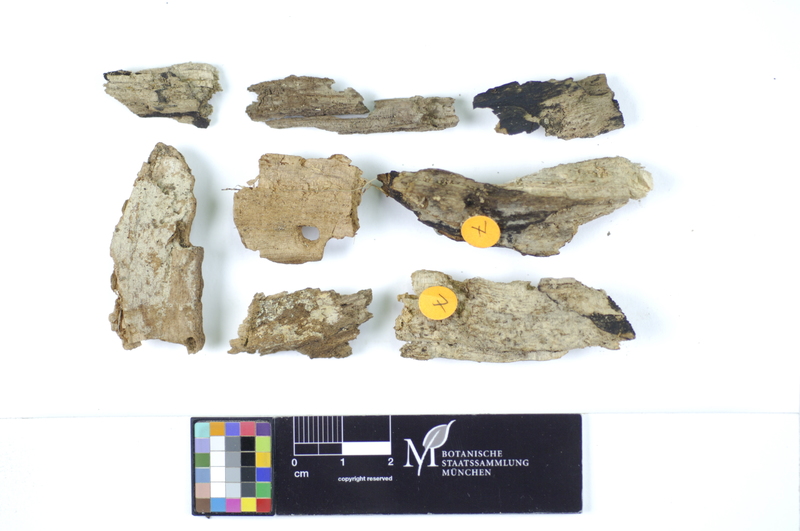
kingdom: Fungi
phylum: Basidiomycota
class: Agaricomycetes
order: Hymenochaetales
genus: Kurtia
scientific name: Kurtia argillacea
